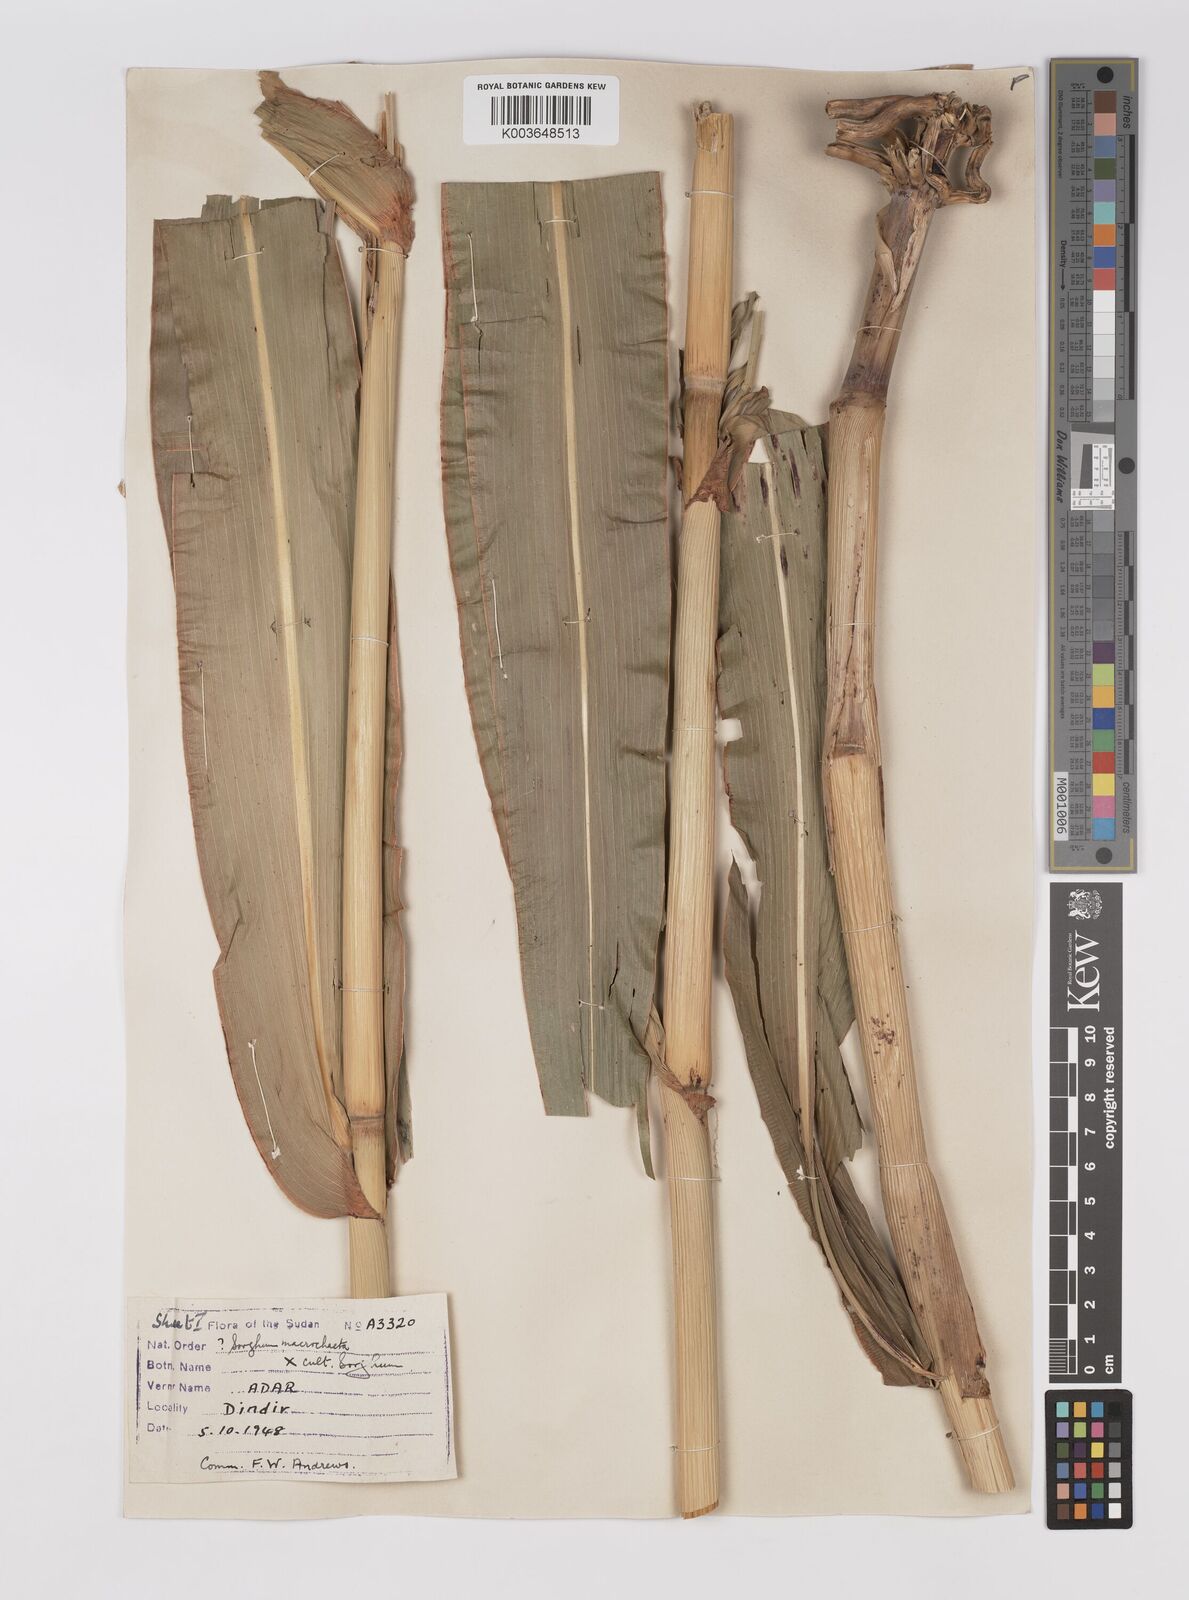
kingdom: Plantae
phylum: Tracheophyta
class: Liliopsida
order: Poales
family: Poaceae
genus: Sorghum
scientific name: Sorghum drummondii
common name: Sudangrass
